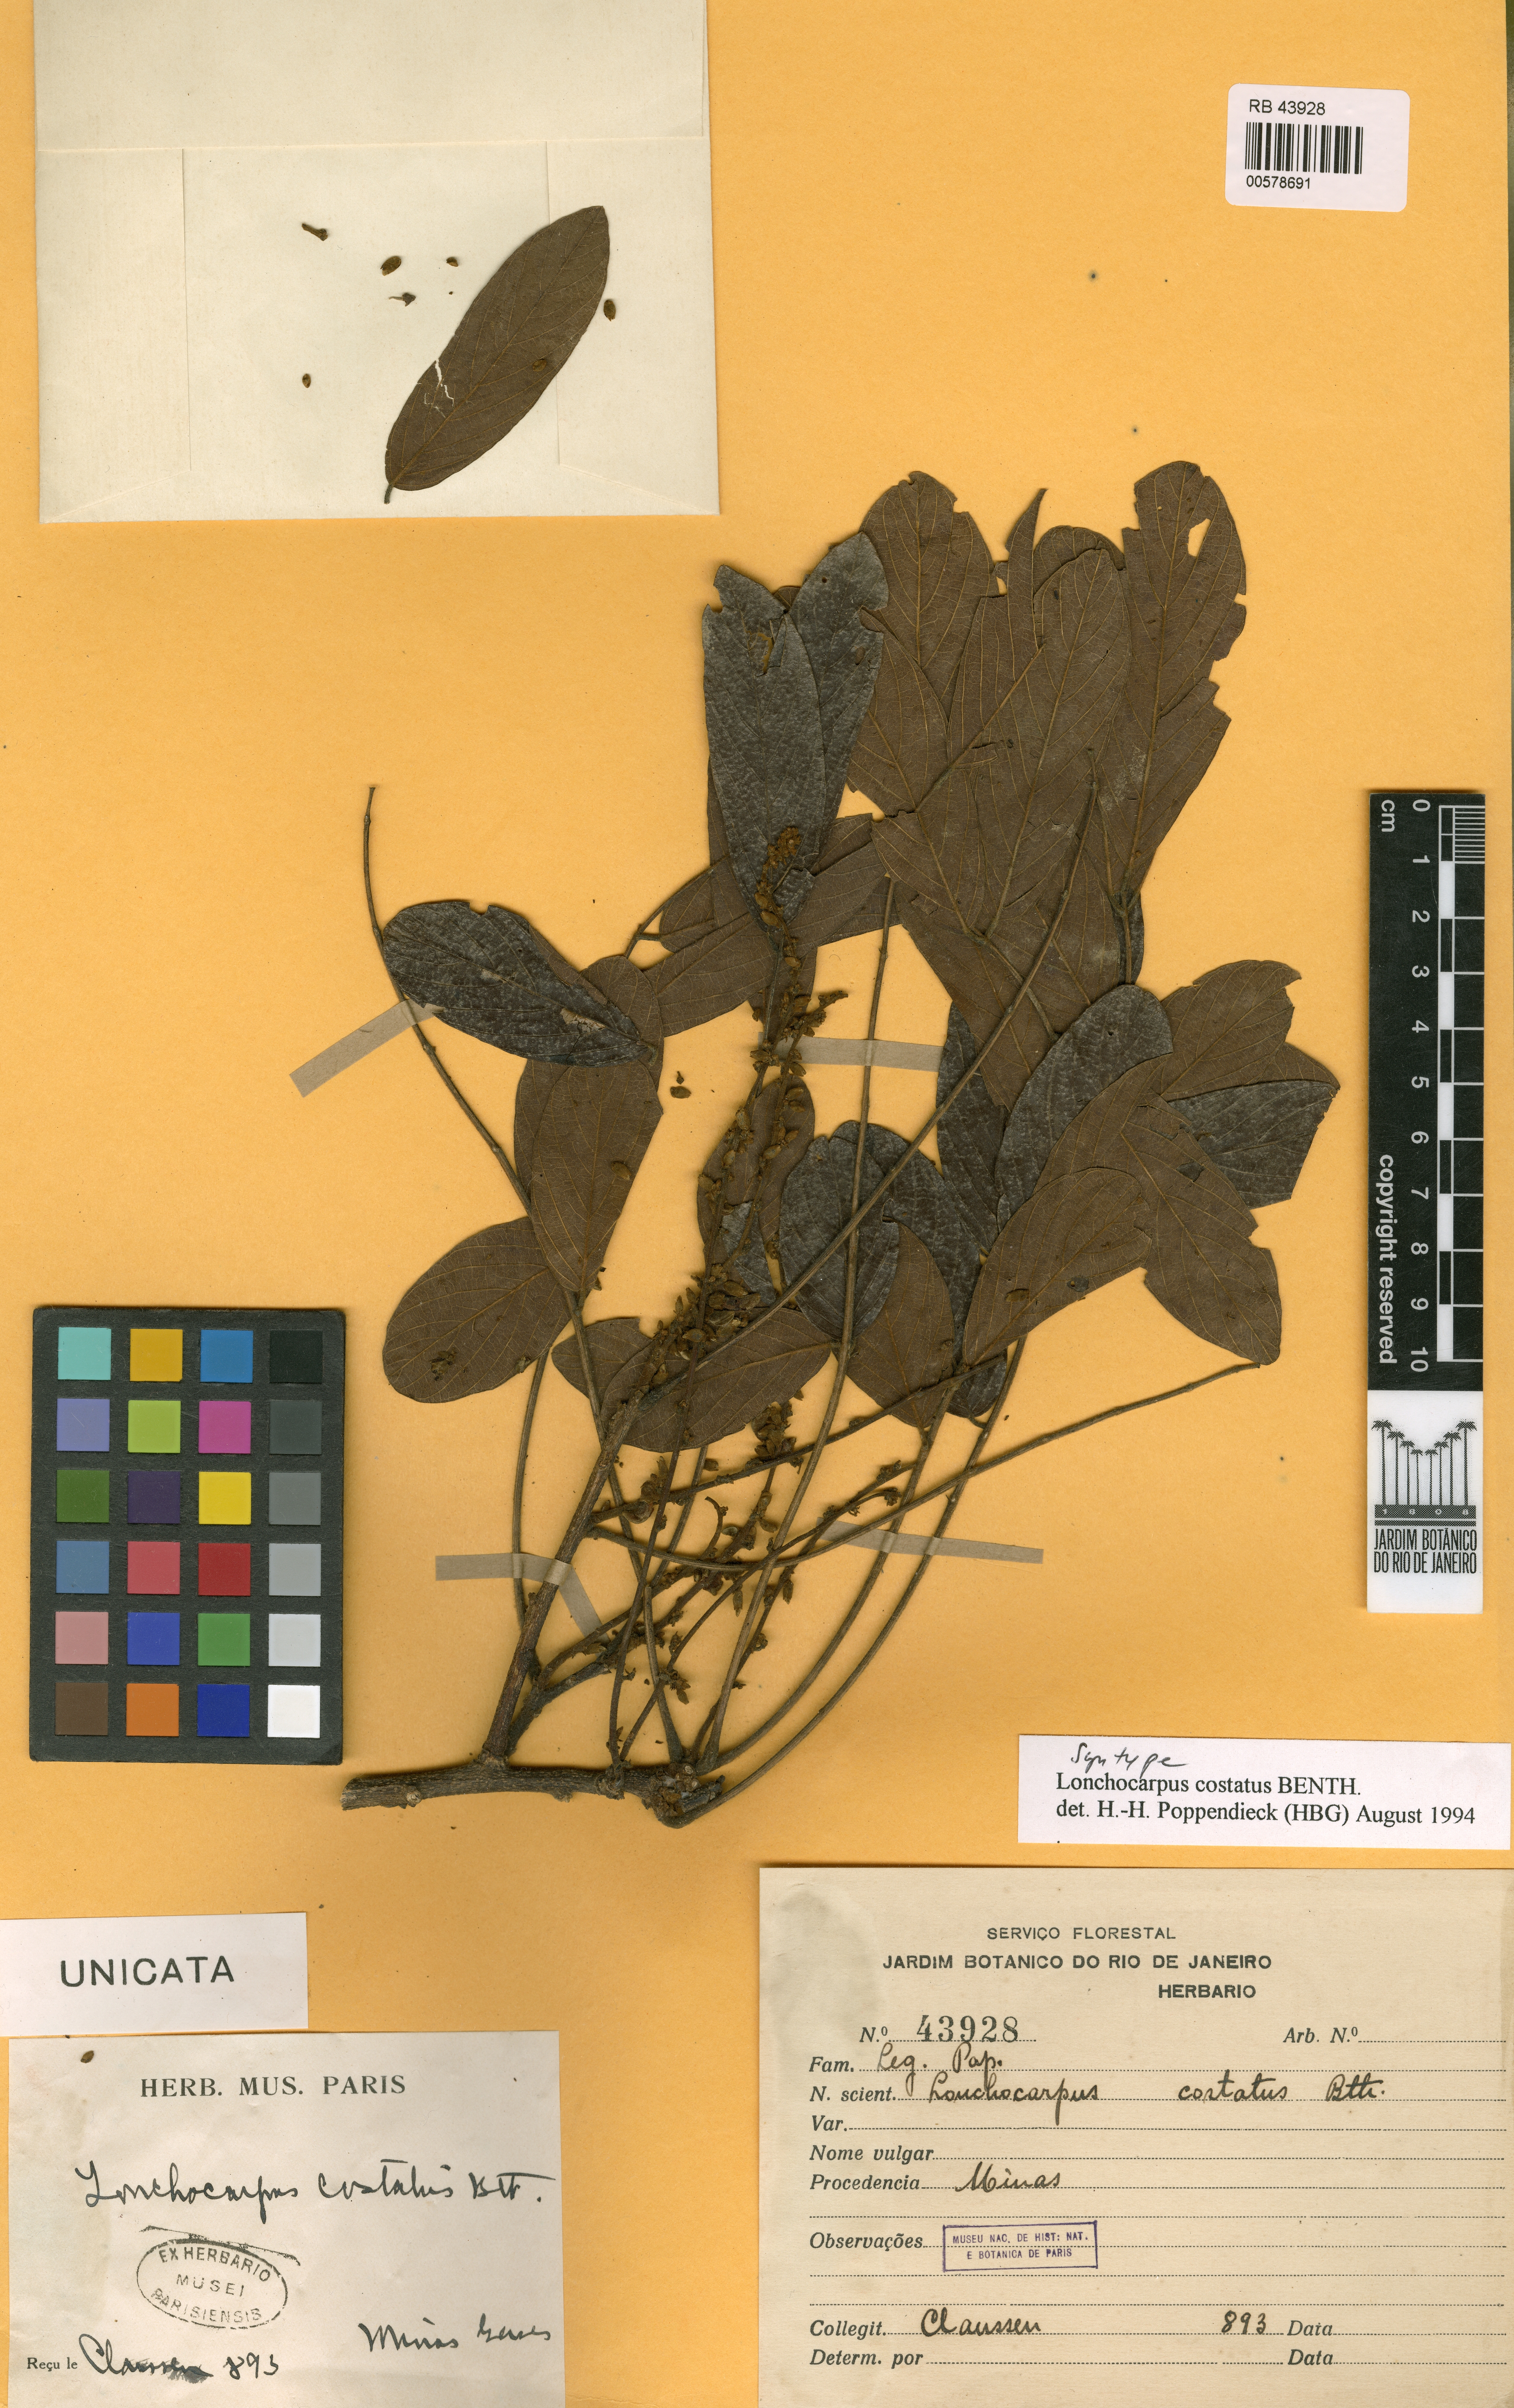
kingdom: Plantae
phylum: Tracheophyta
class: Magnoliopsida
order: Fabales
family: Fabaceae
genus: Lonchocarpus
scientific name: Lonchocarpus
